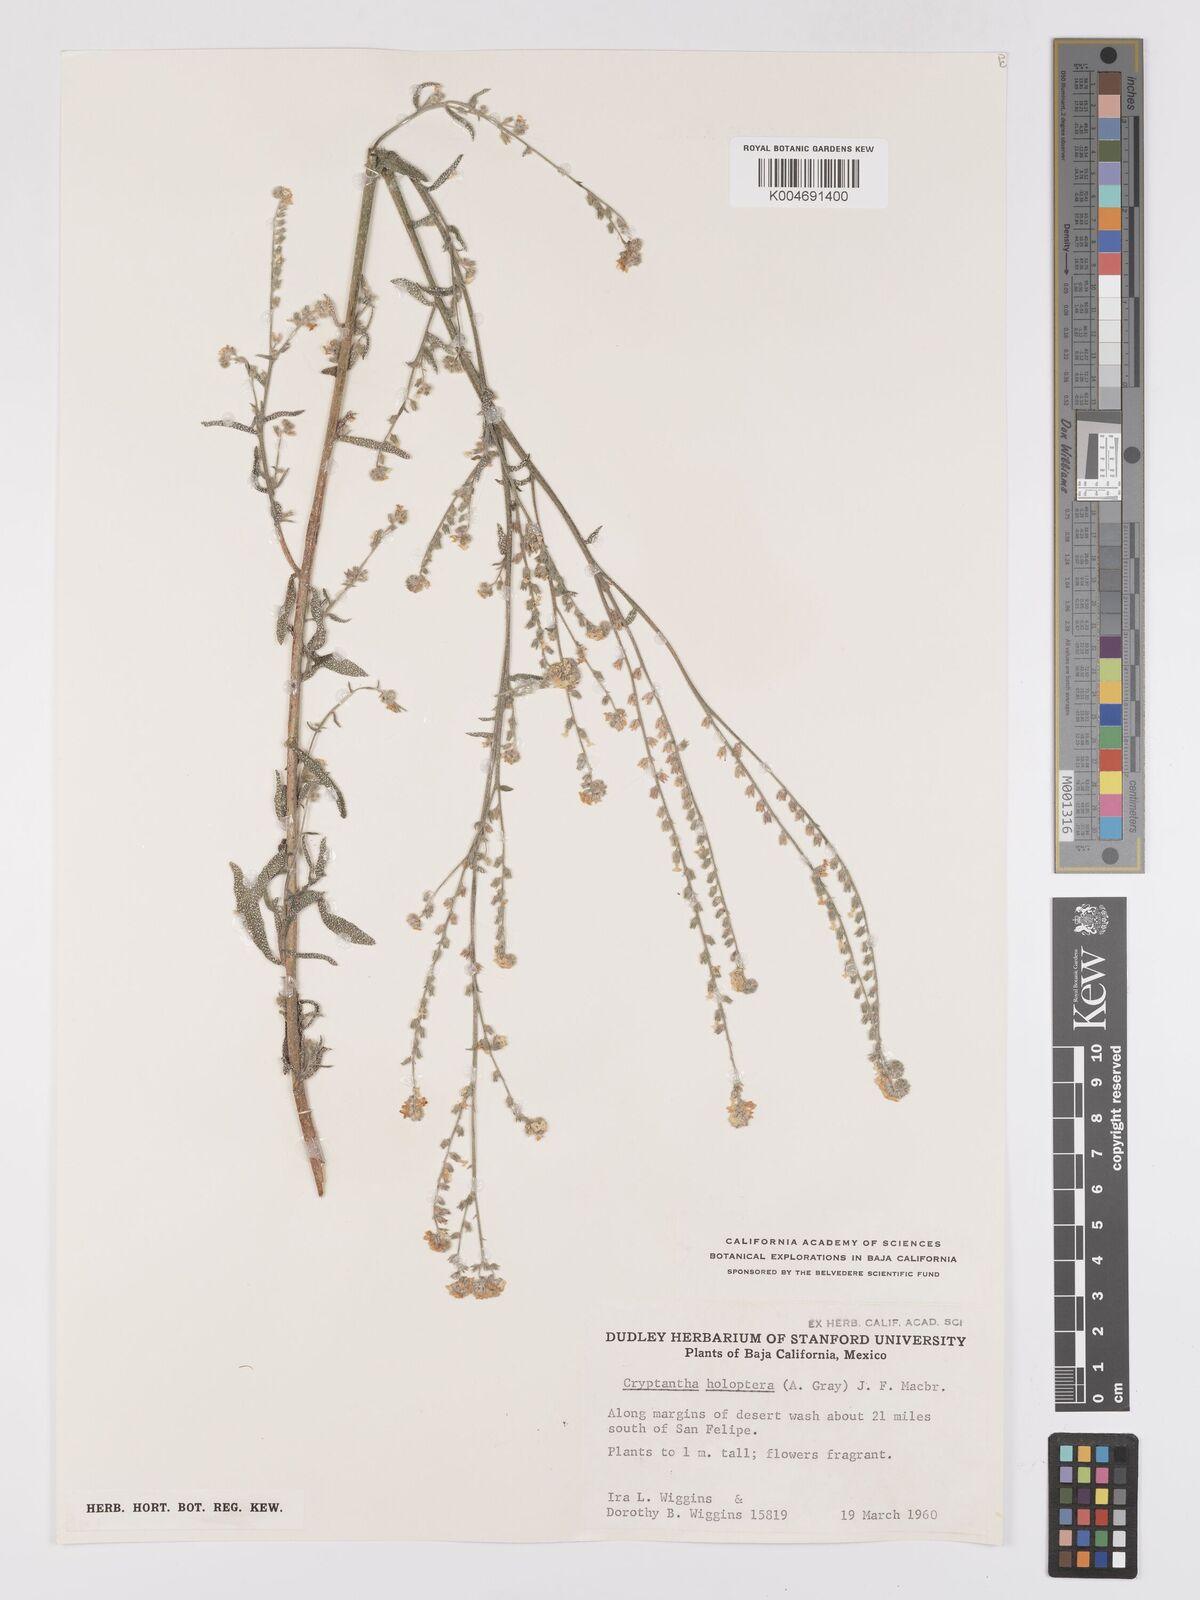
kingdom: Plantae
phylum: Tracheophyta
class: Magnoliopsida
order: Boraginales
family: Boraginaceae
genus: Johnstonella
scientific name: Johnstonella holoptera
